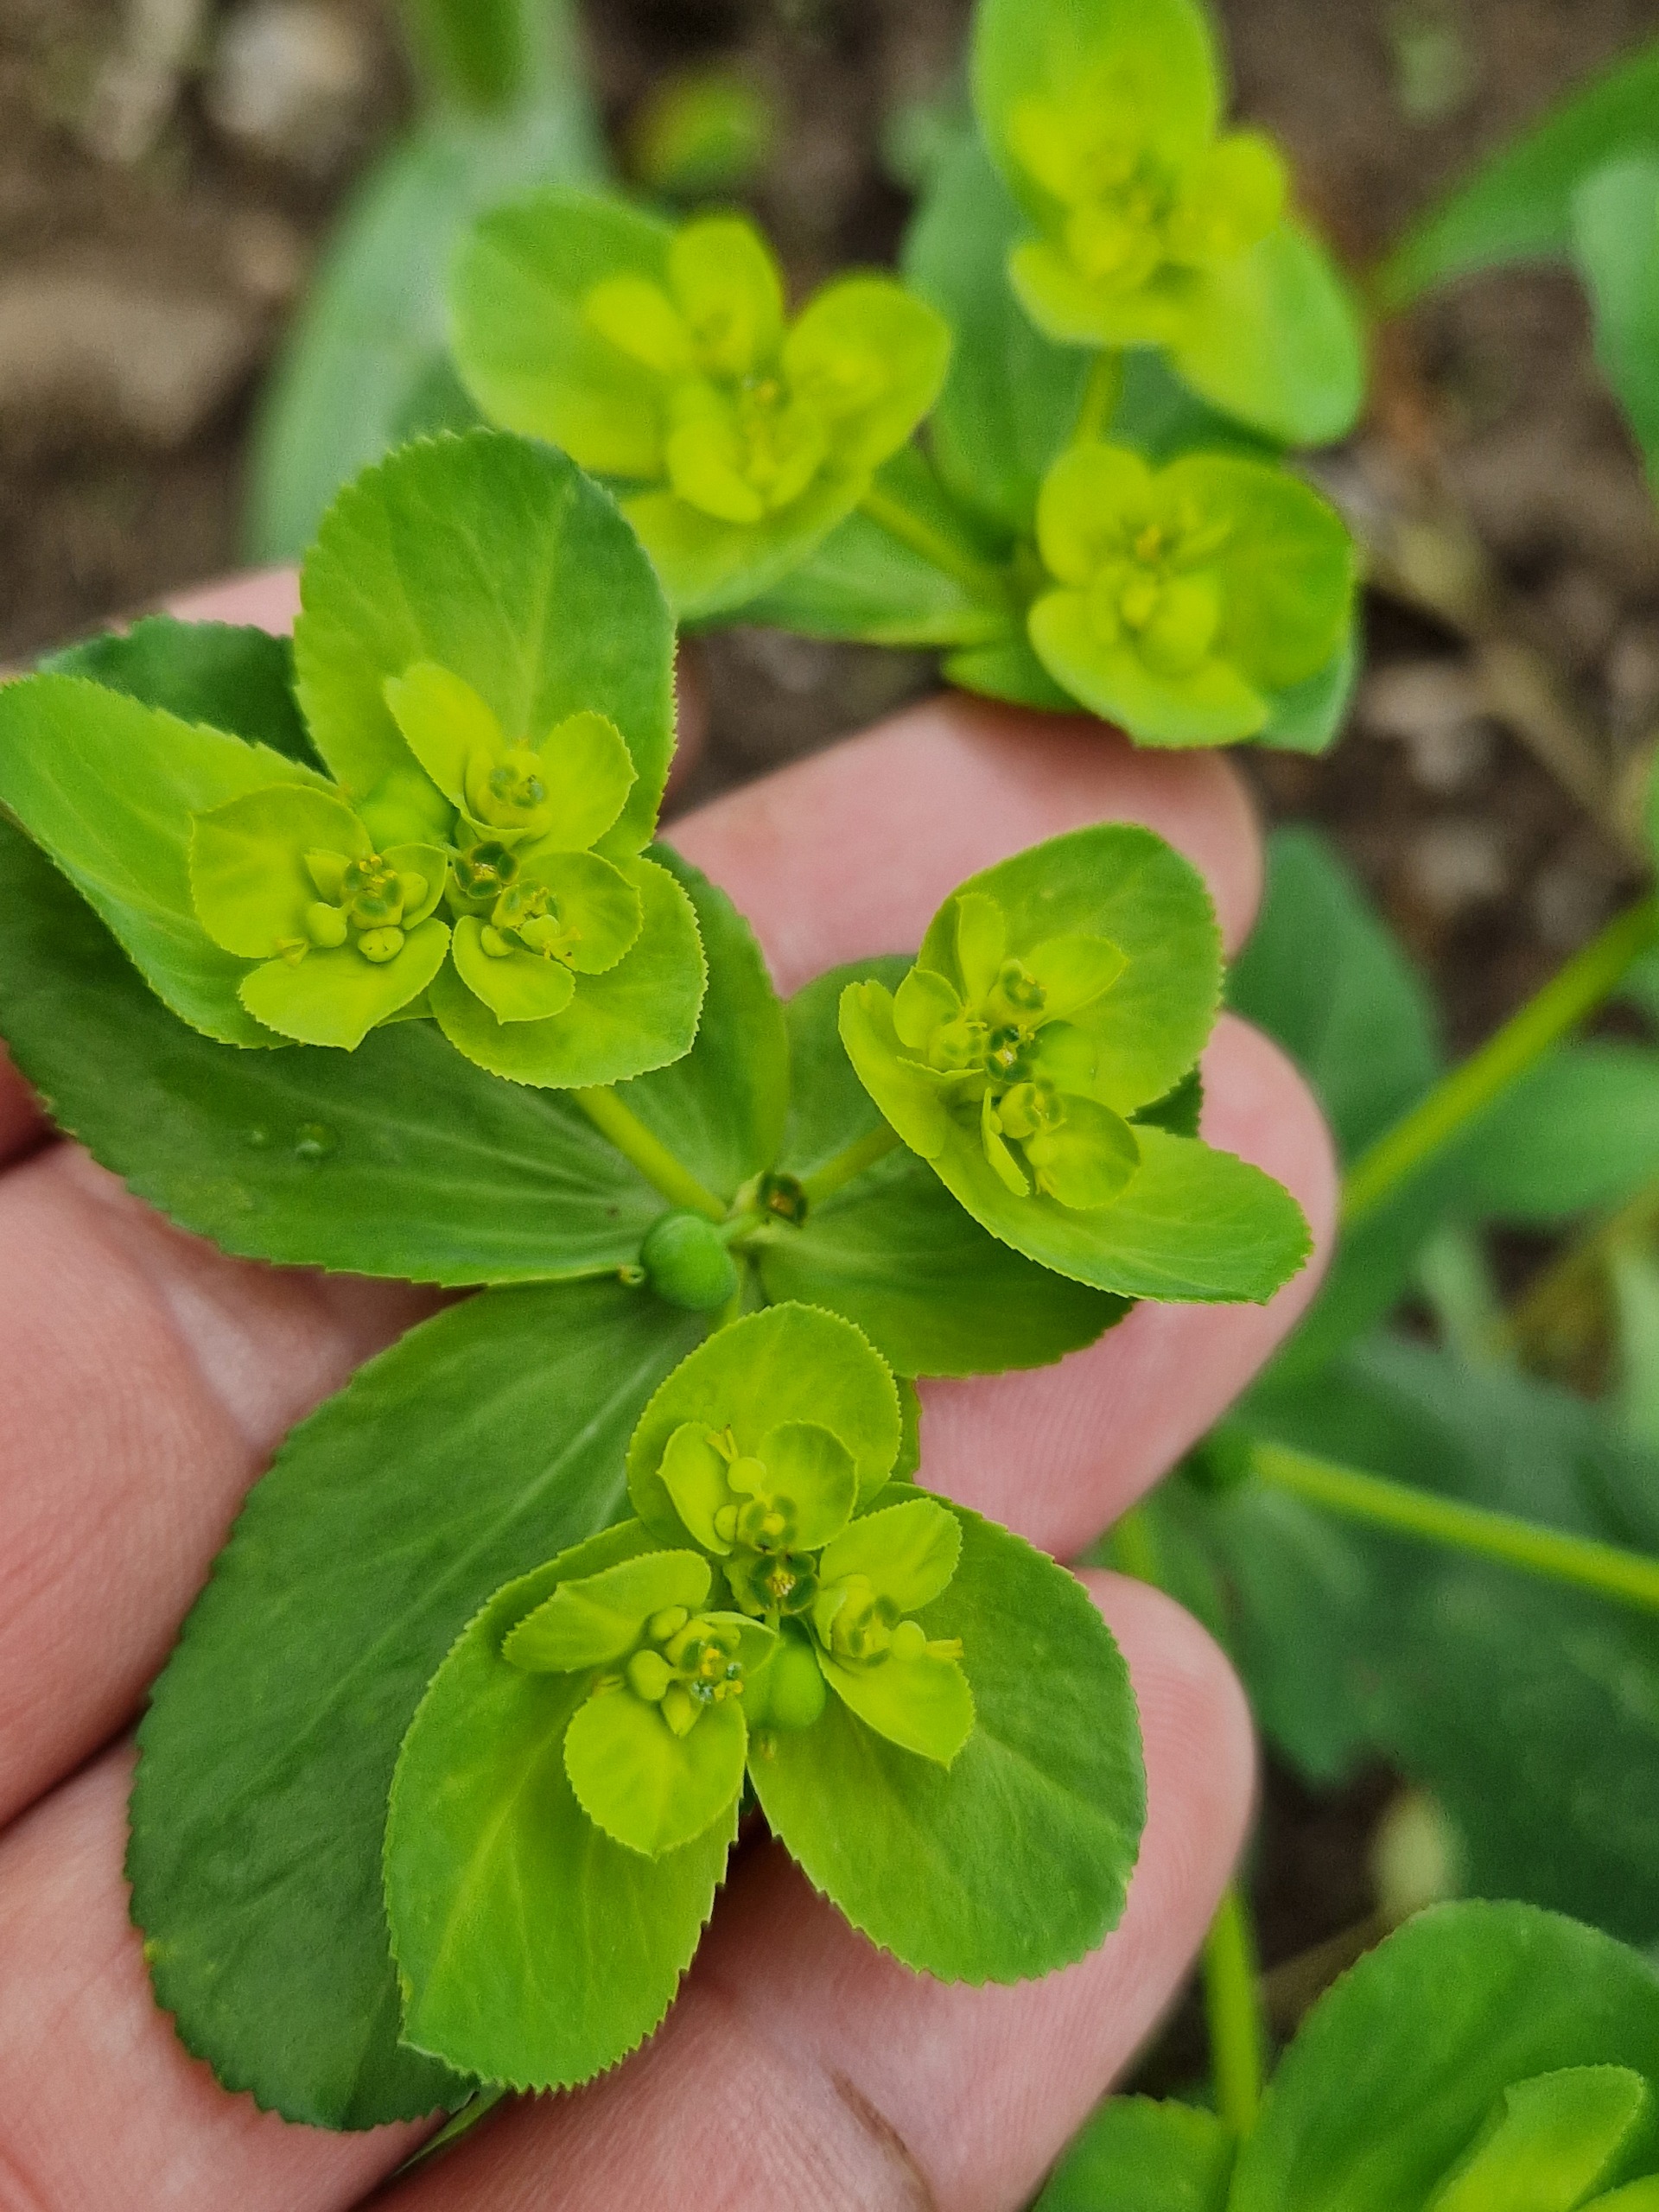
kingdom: Plantae
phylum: Tracheophyta
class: Magnoliopsida
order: Malpighiales
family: Euphorbiaceae
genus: Euphorbia
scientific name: Euphorbia helioscopia
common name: Skærm-vortemælk
